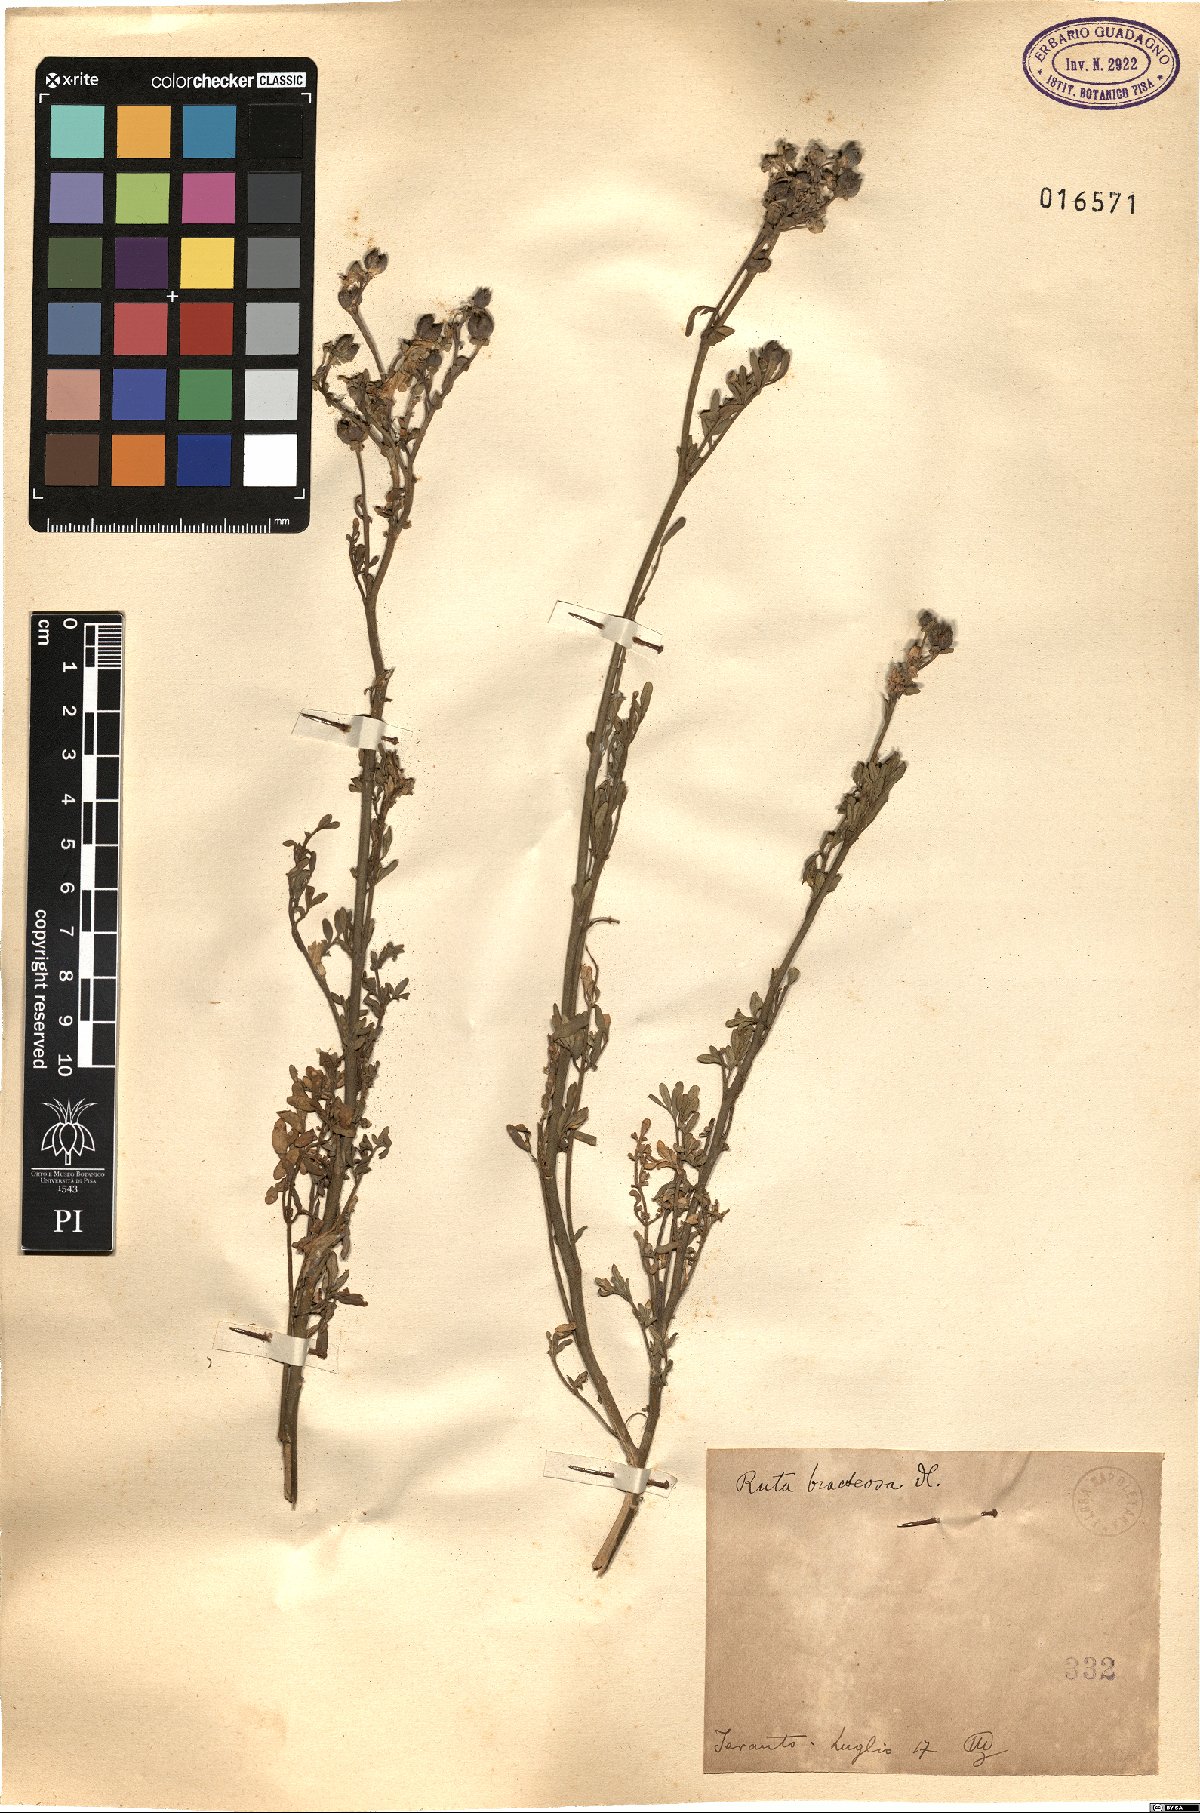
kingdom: Plantae
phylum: Tracheophyta
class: Magnoliopsida
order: Sapindales
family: Rutaceae
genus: Ruta
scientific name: Ruta chalepensis
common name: Fringed rue
